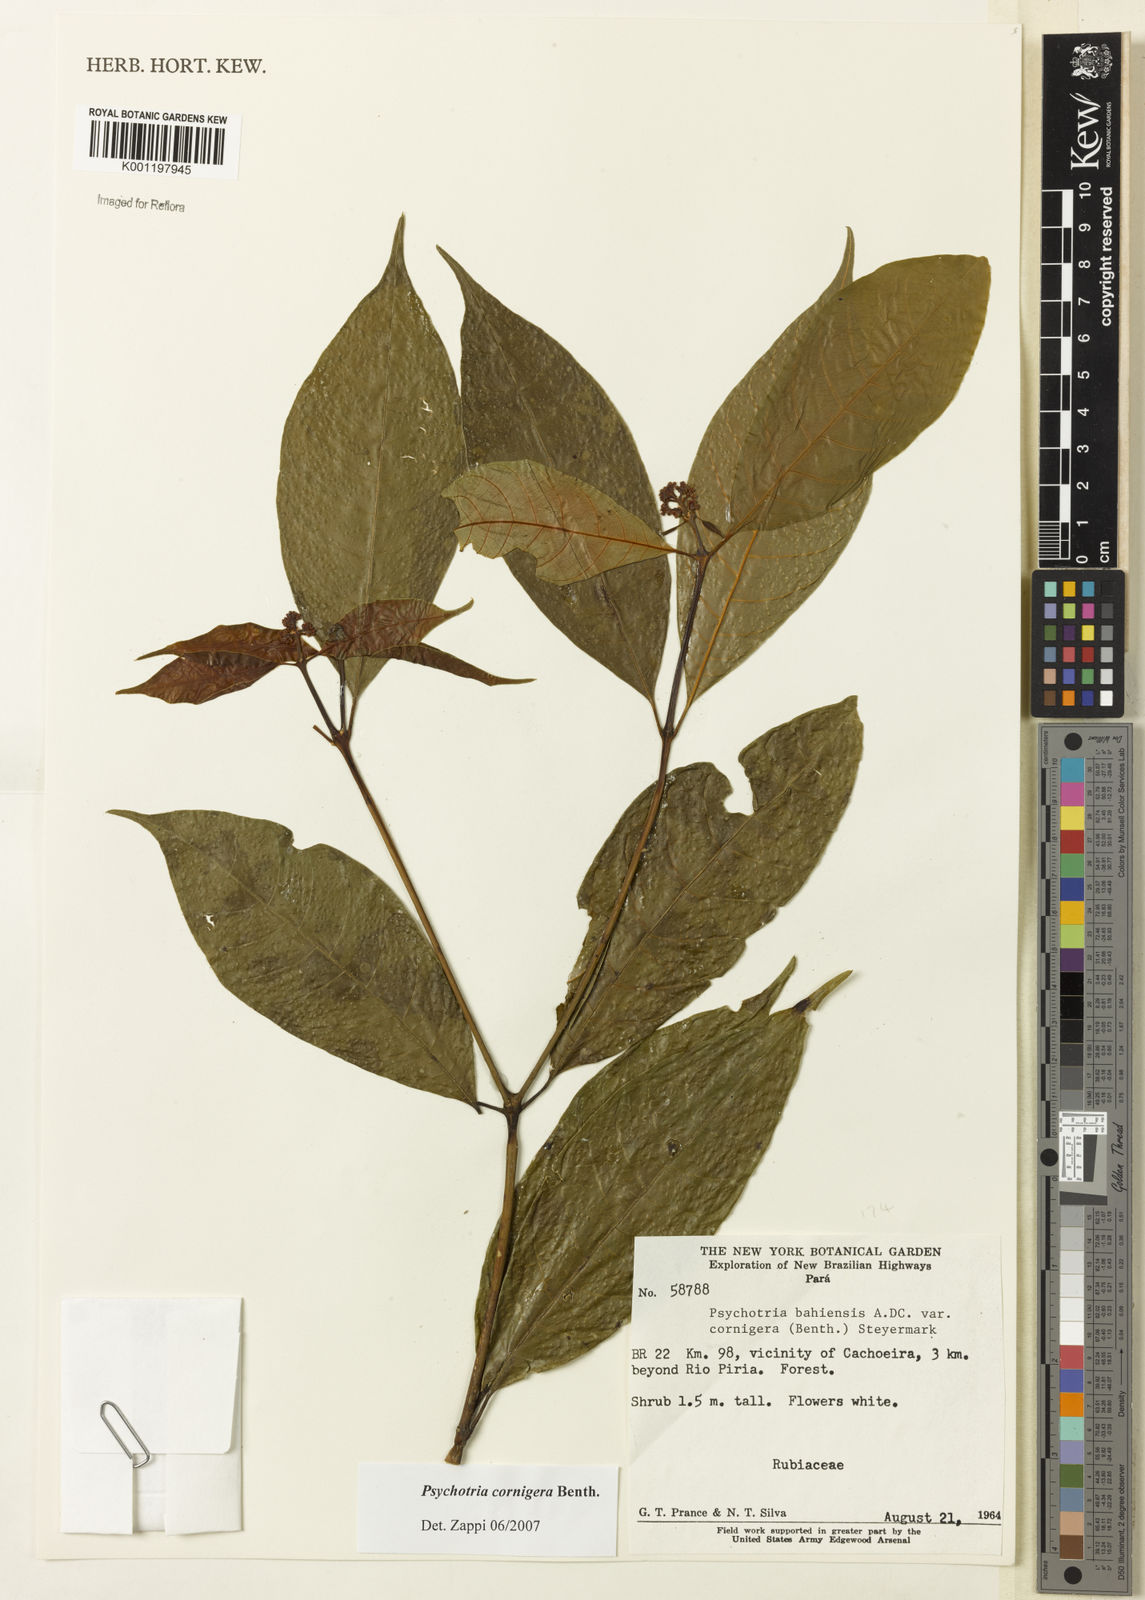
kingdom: Plantae
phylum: Tracheophyta
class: Magnoliopsida
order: Gentianales
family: Rubiaceae
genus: Psychotria
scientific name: Psychotria bahiensis
